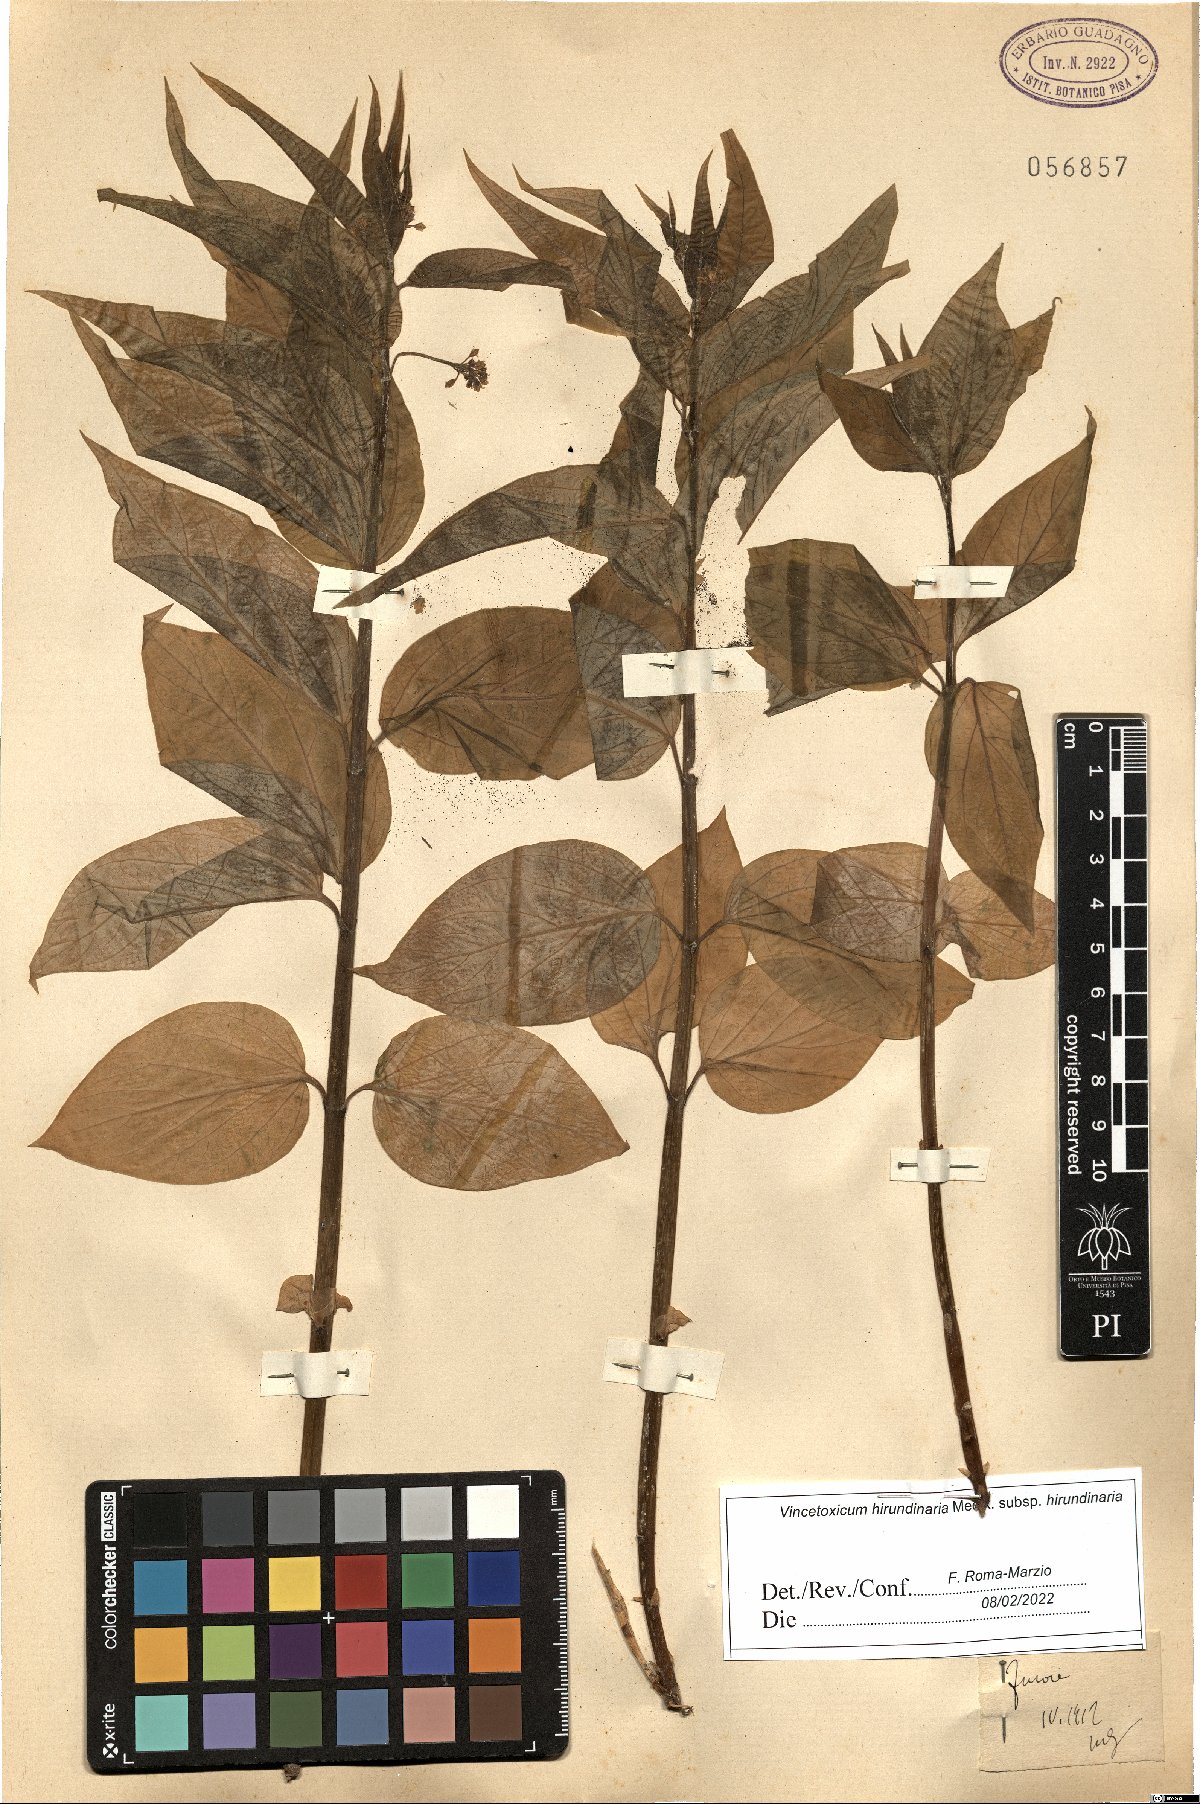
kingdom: Plantae
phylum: Tracheophyta
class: Magnoliopsida
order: Gentianales
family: Apocynaceae
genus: Vincetoxicum
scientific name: Vincetoxicum hirundinaria
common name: White swallowwort
